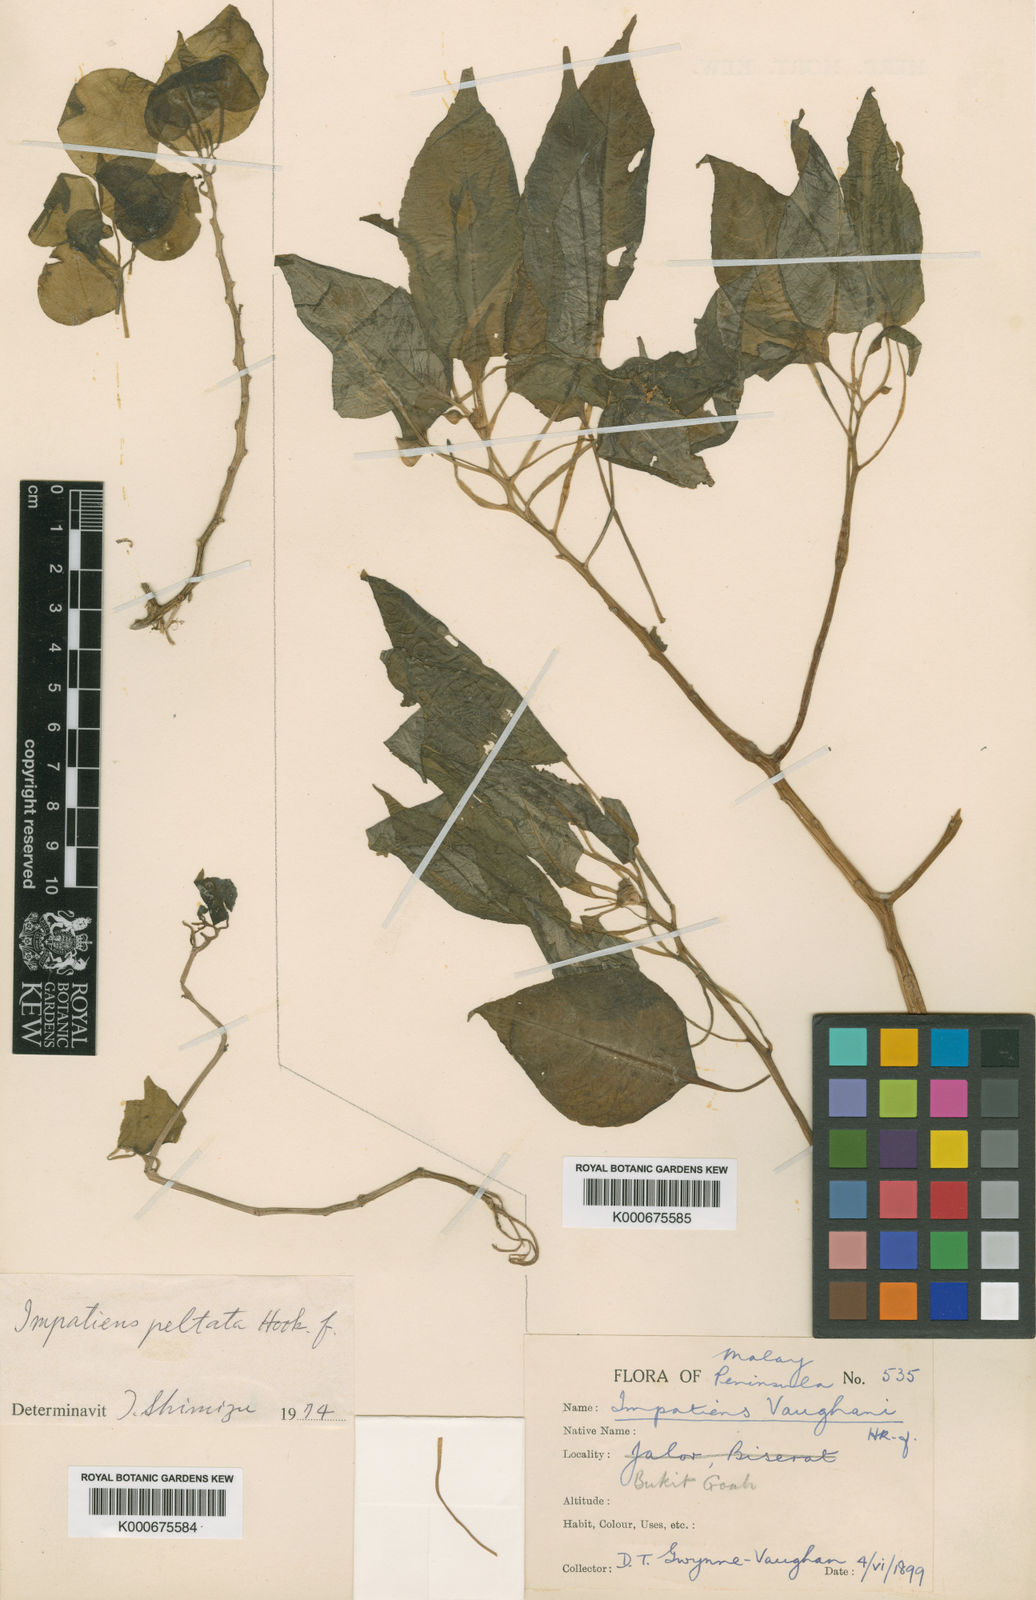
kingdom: Plantae
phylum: Tracheophyta
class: Magnoliopsida
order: Ericales
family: Balsaminaceae
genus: Impatiens
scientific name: Impatiens vaughanii
